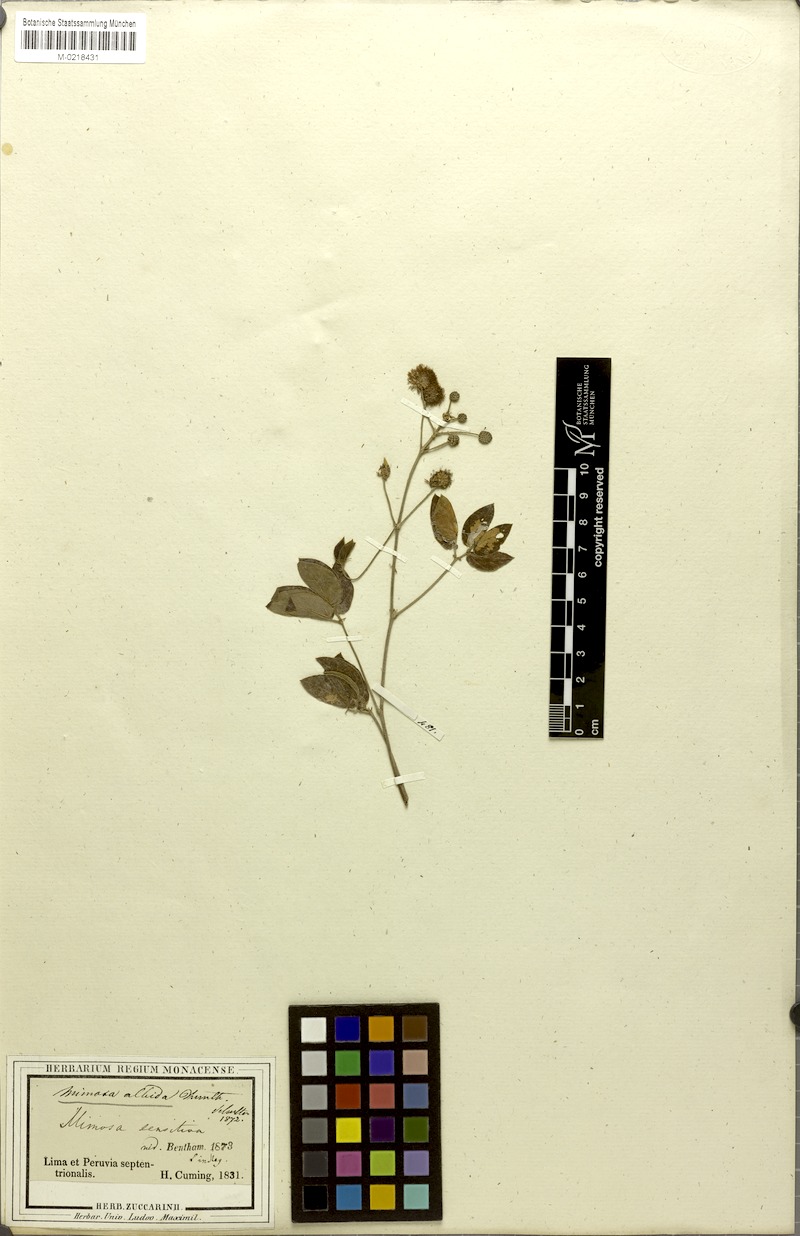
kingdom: Plantae
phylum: Tracheophyta
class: Magnoliopsida
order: Fabales
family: Fabaceae
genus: Mimosa
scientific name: Mimosa albida
